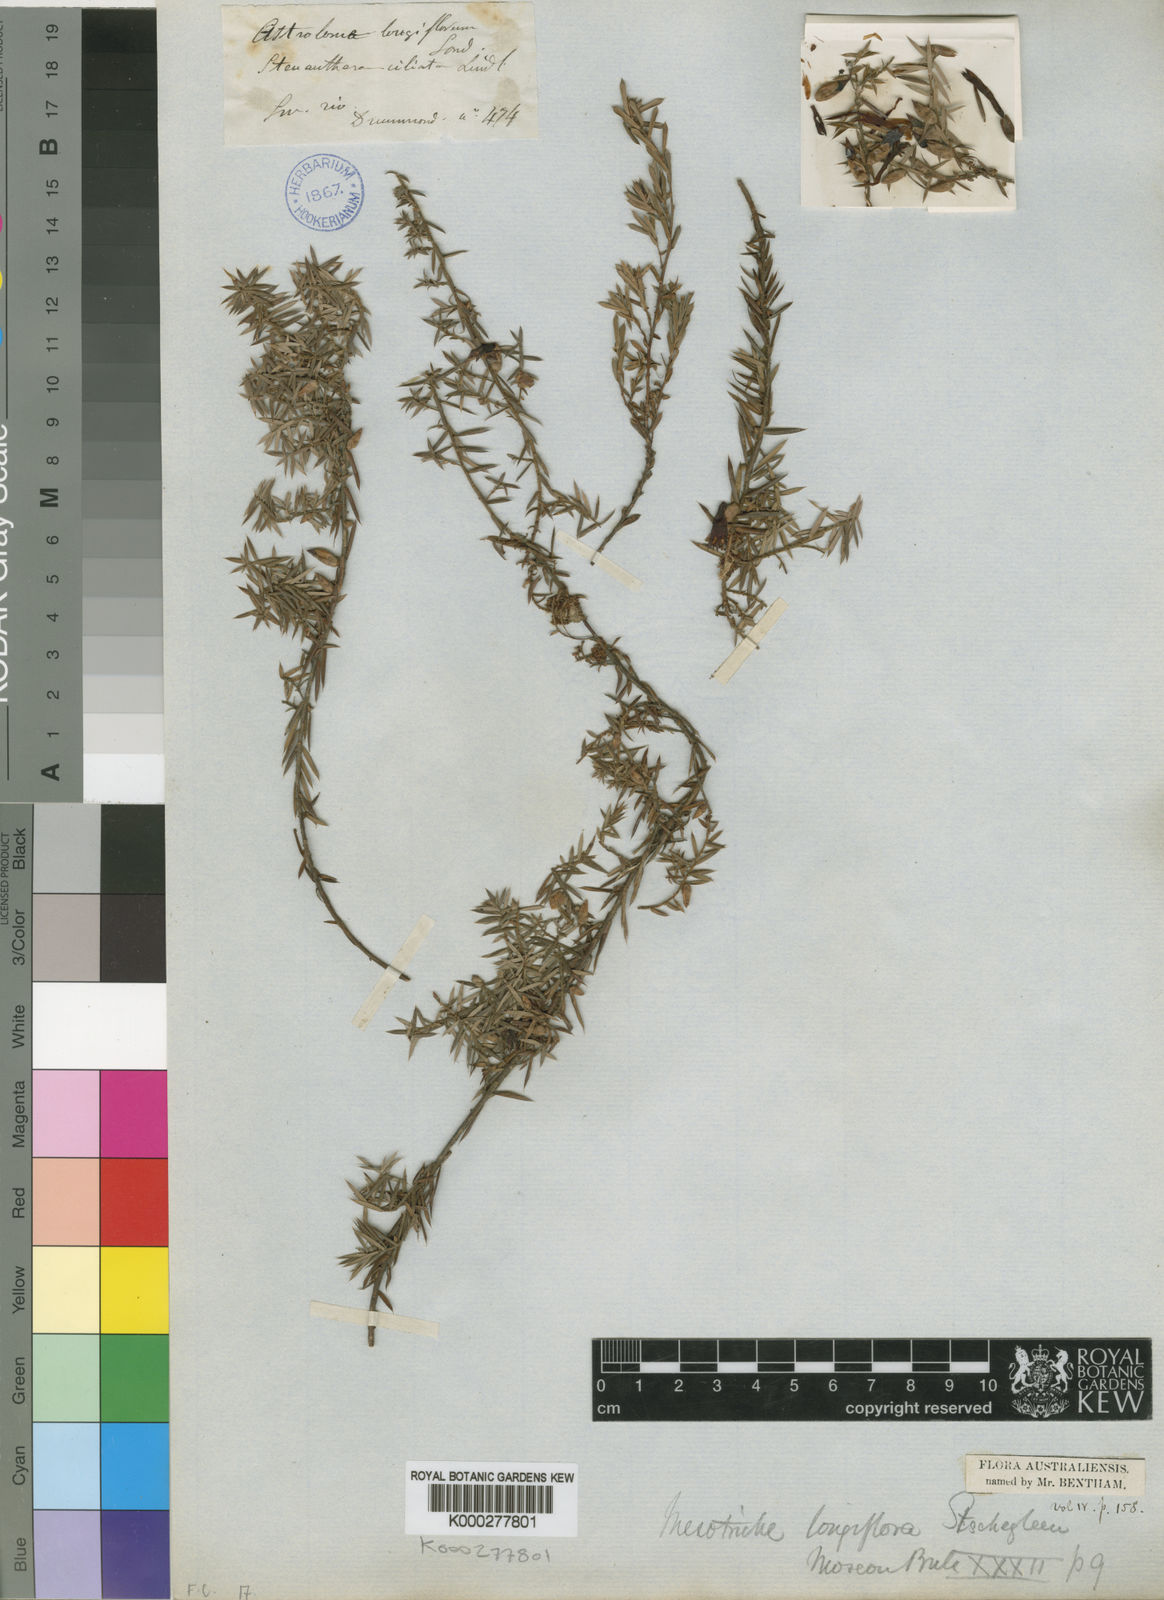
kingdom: Plantae
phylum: Tracheophyta
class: Magnoliopsida
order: Ericales
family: Ericaceae
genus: Styphelia
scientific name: Styphelia discolor
